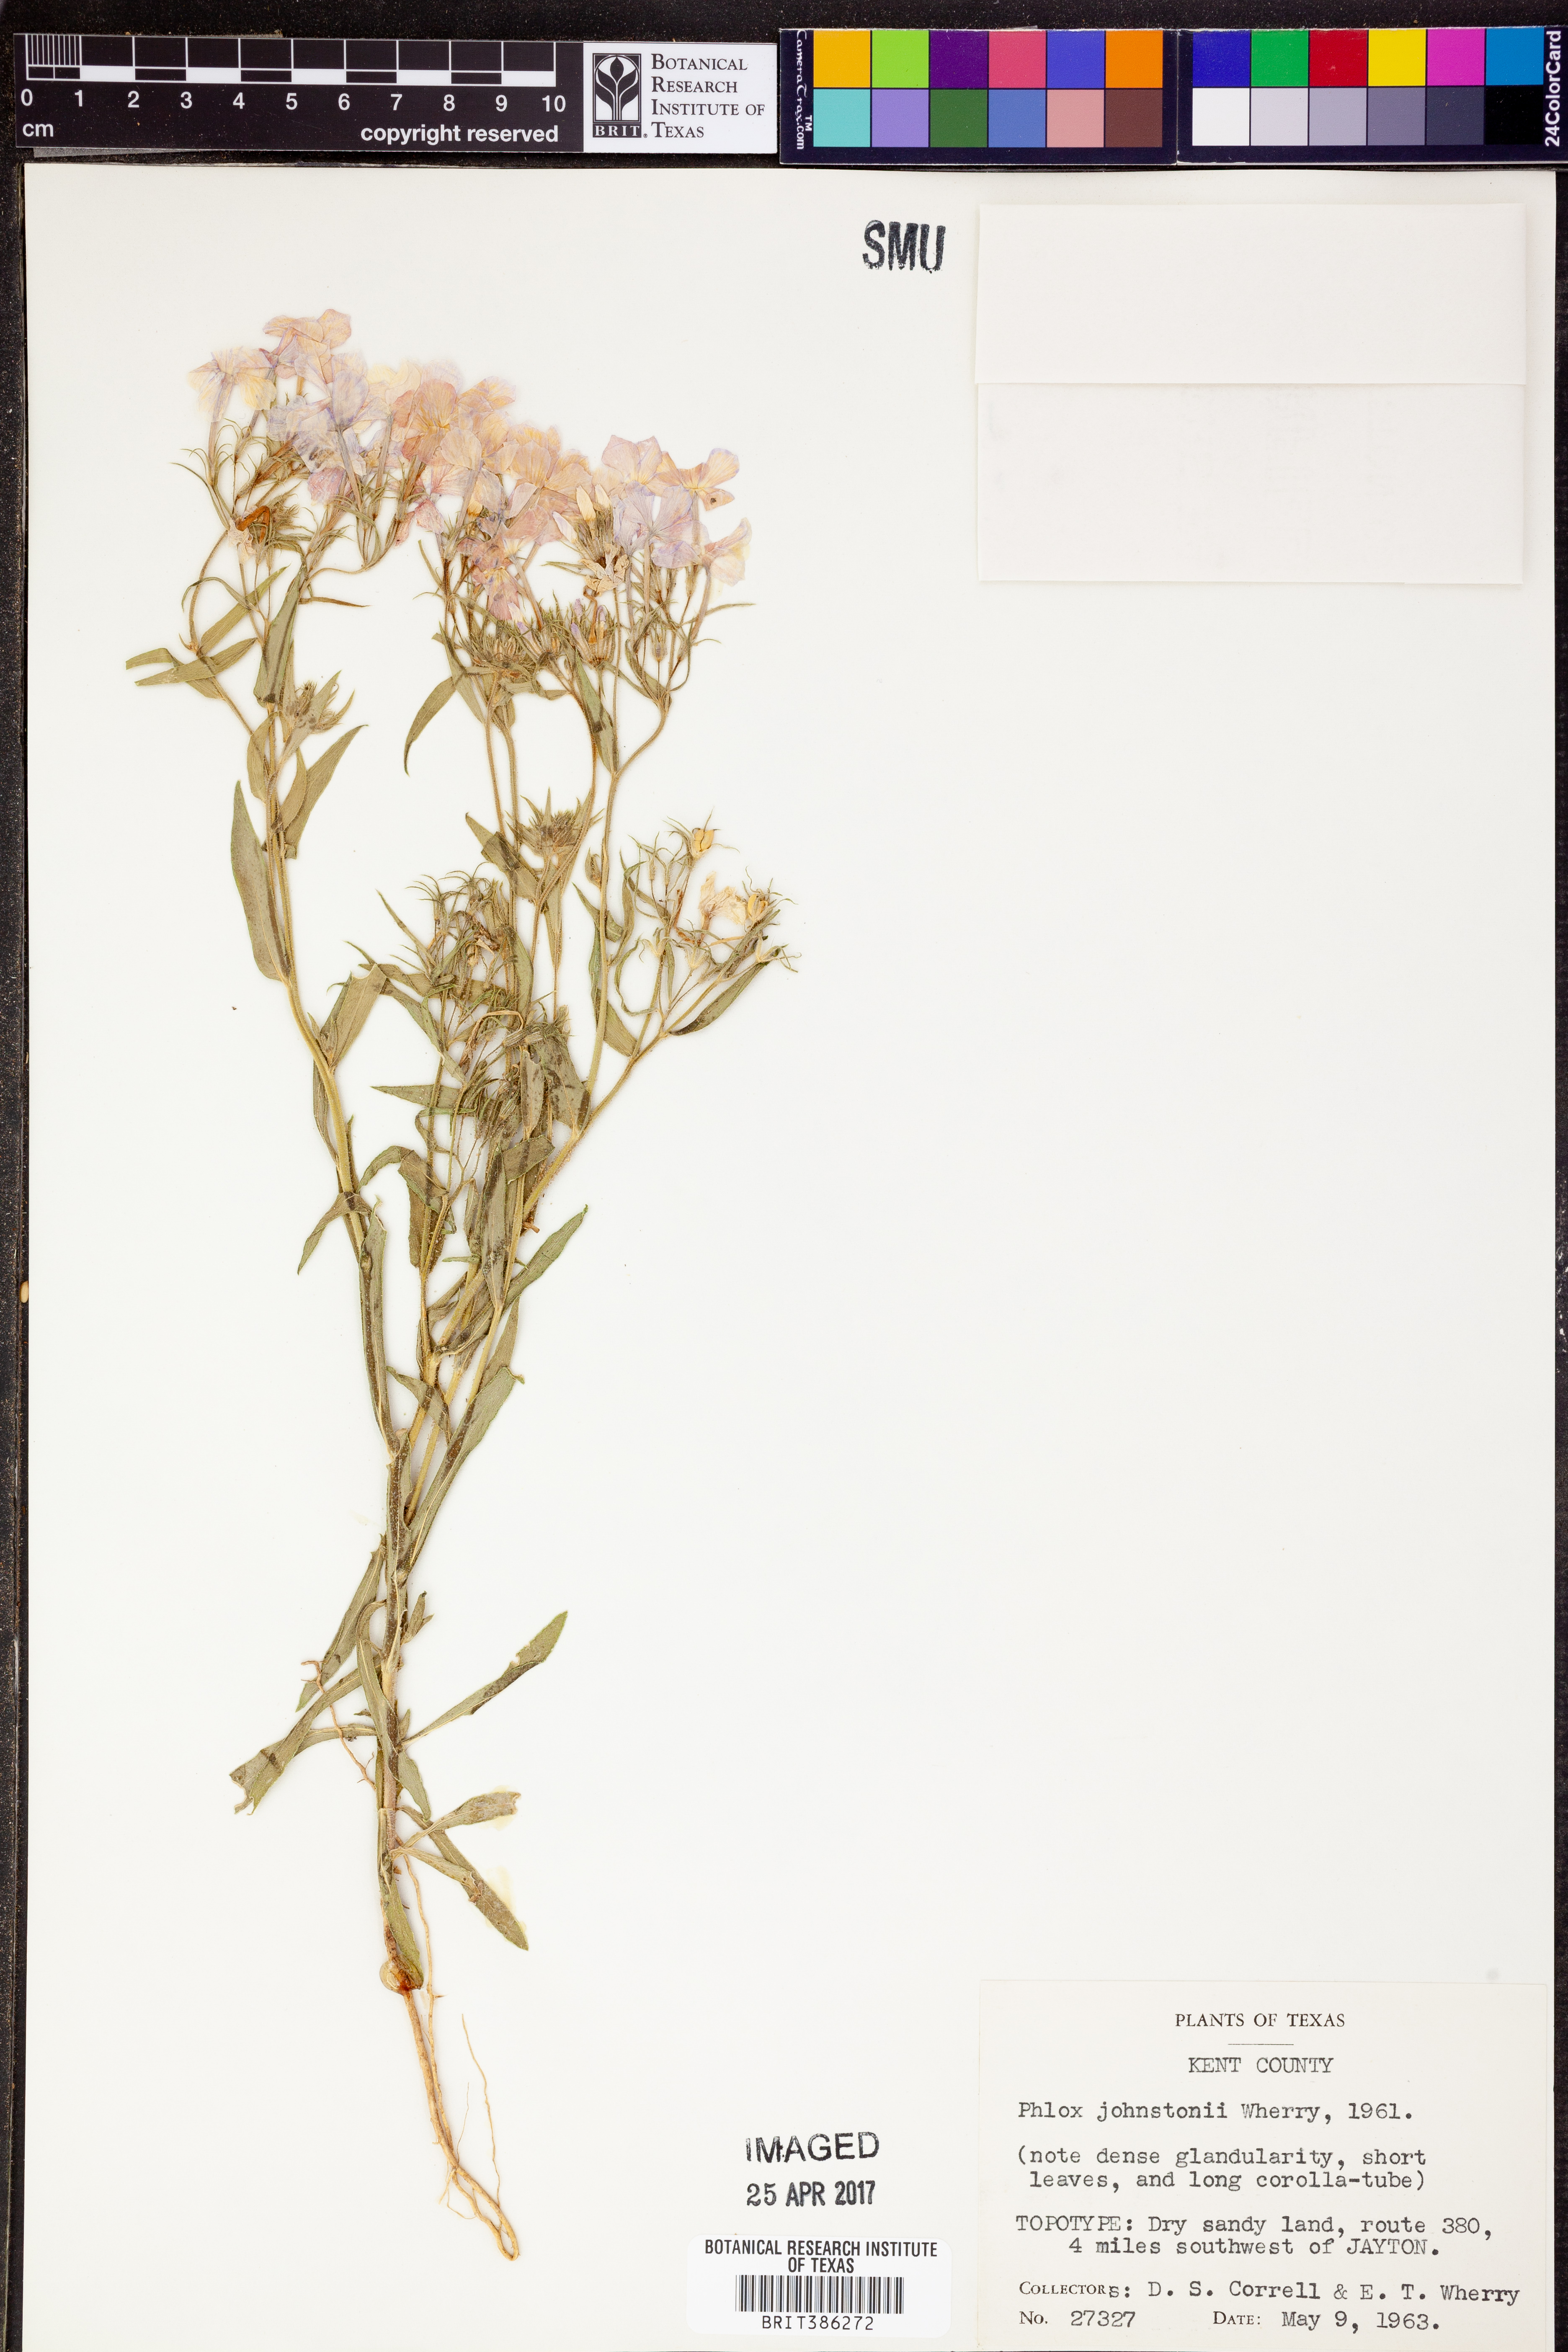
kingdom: Plantae
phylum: Tracheophyta
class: Magnoliopsida
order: Ericales
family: Polemoniaceae
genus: Phlox
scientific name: Phlox drummondii
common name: Drummond's phlox
